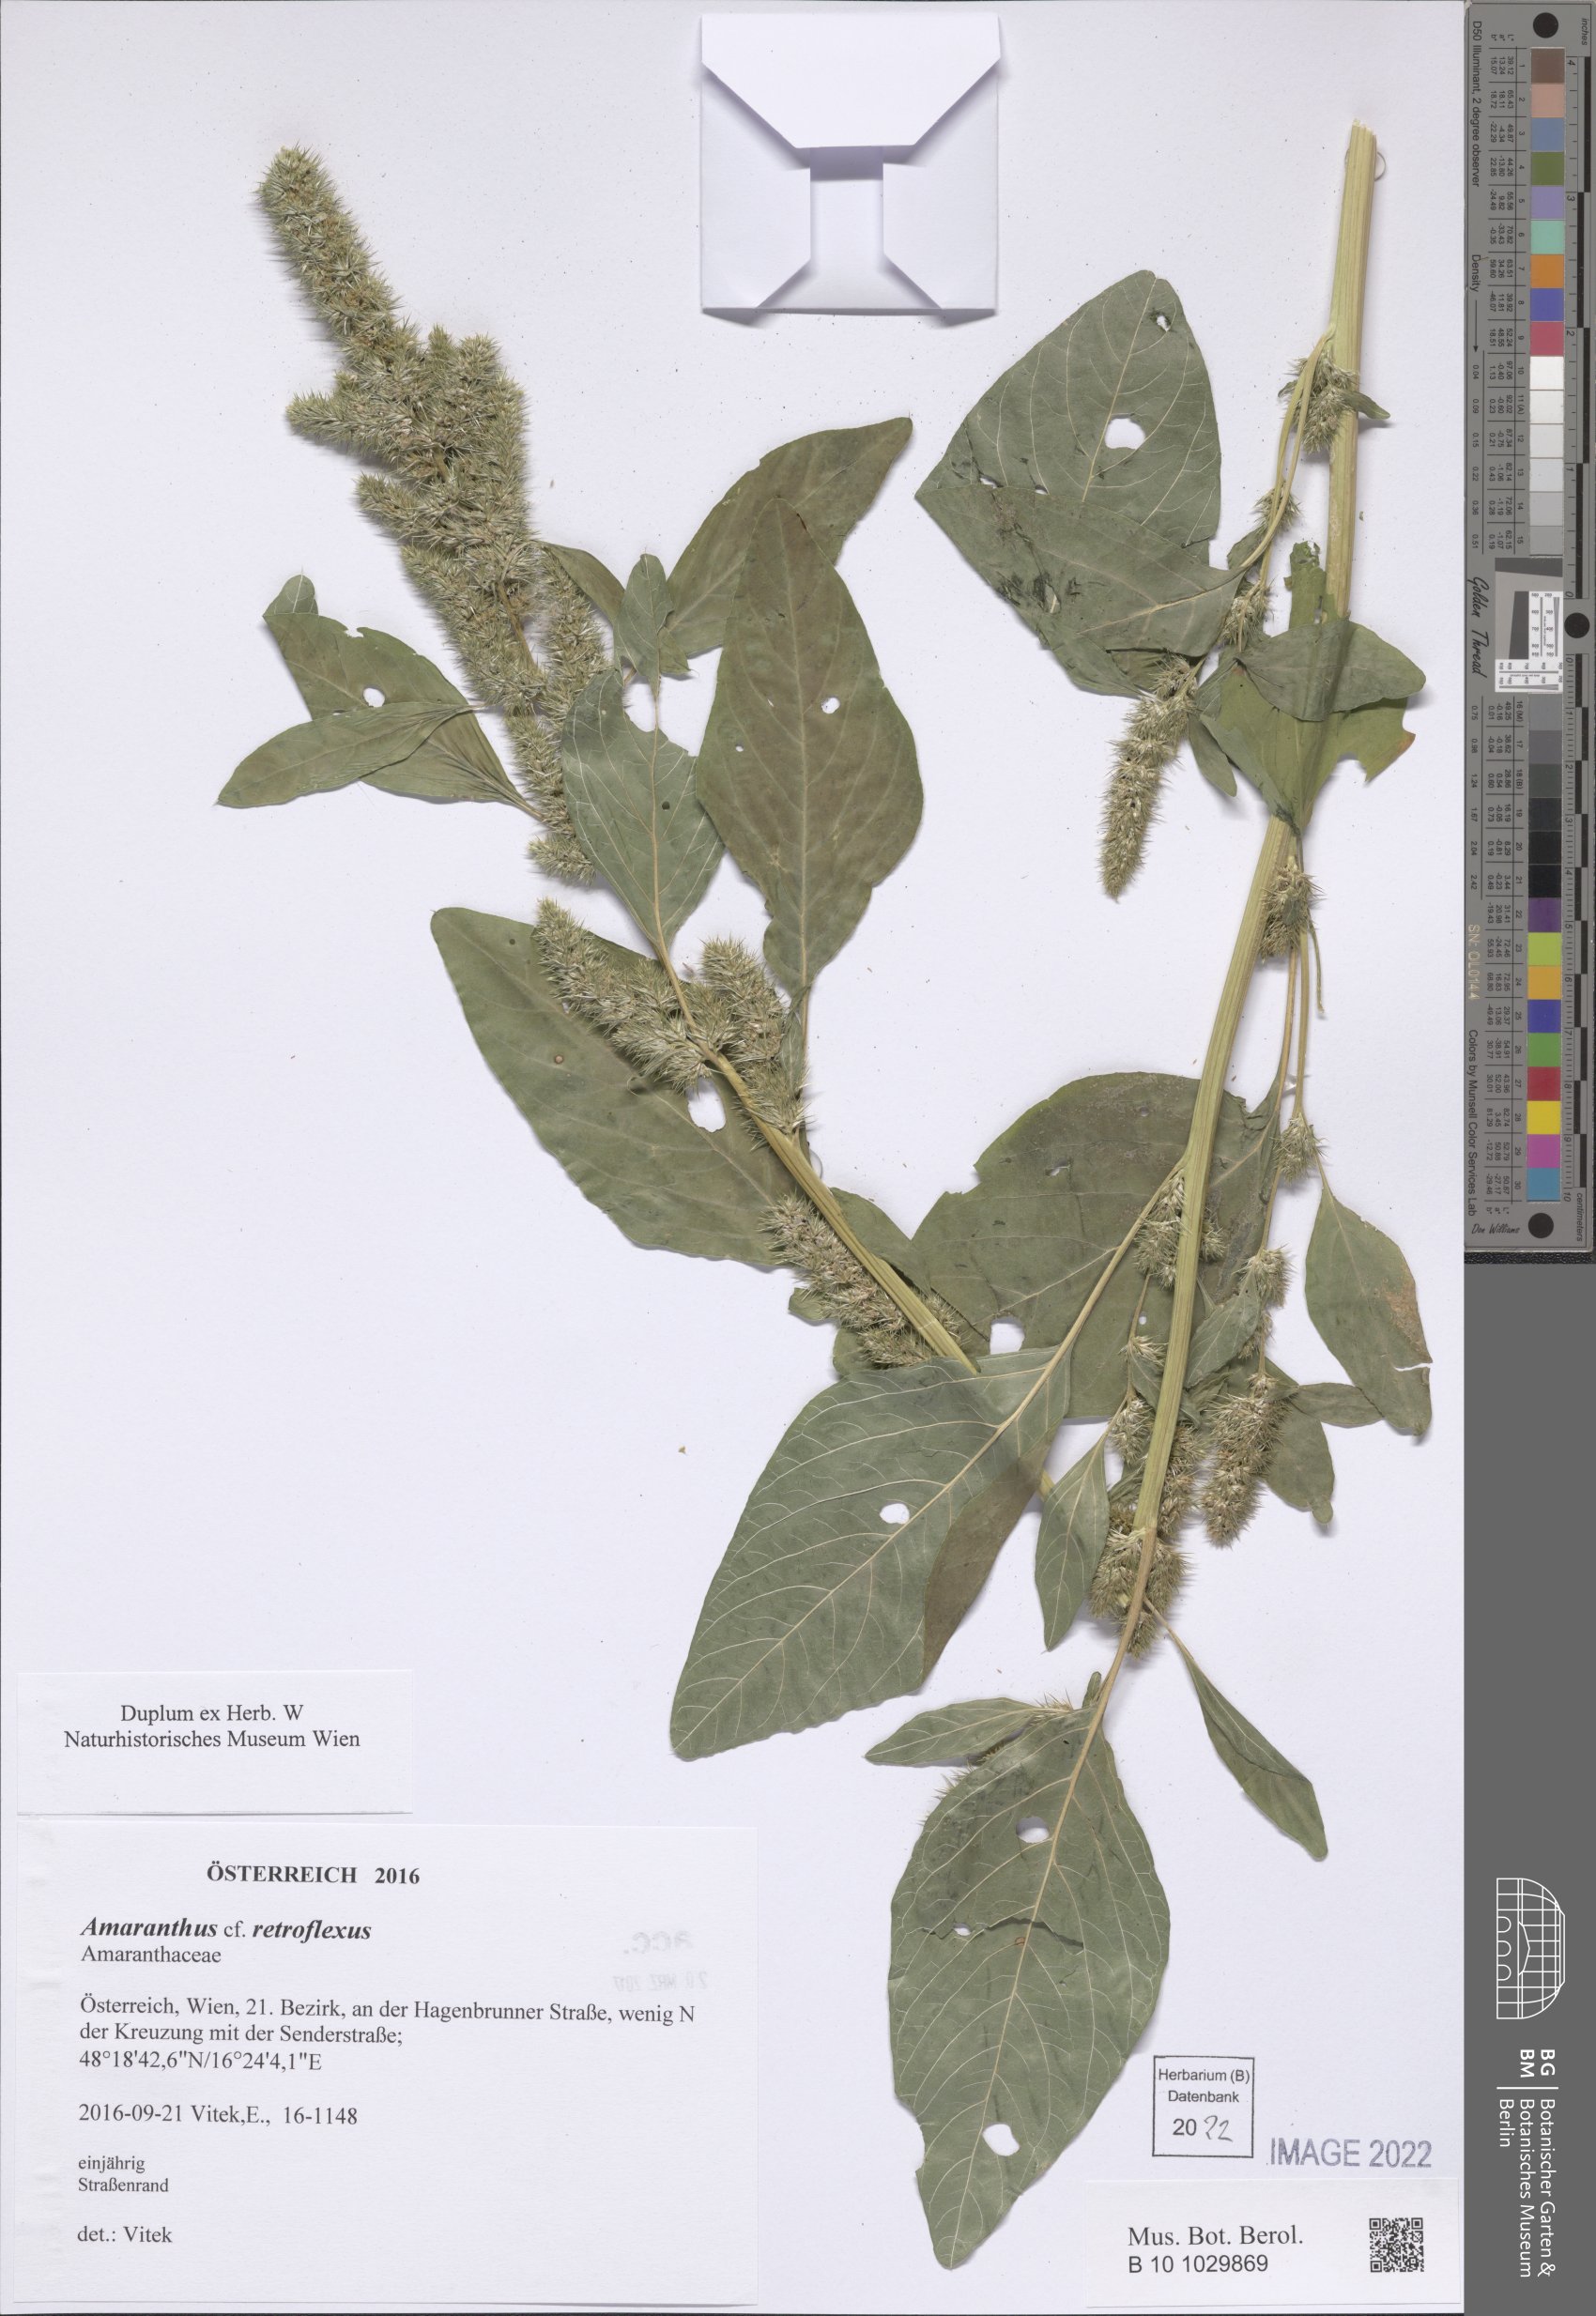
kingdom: Plantae
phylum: Tracheophyta
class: Magnoliopsida
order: Caryophyllales
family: Amaranthaceae
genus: Amaranthus
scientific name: Amaranthus retroflexus
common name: Redroot amaranth
